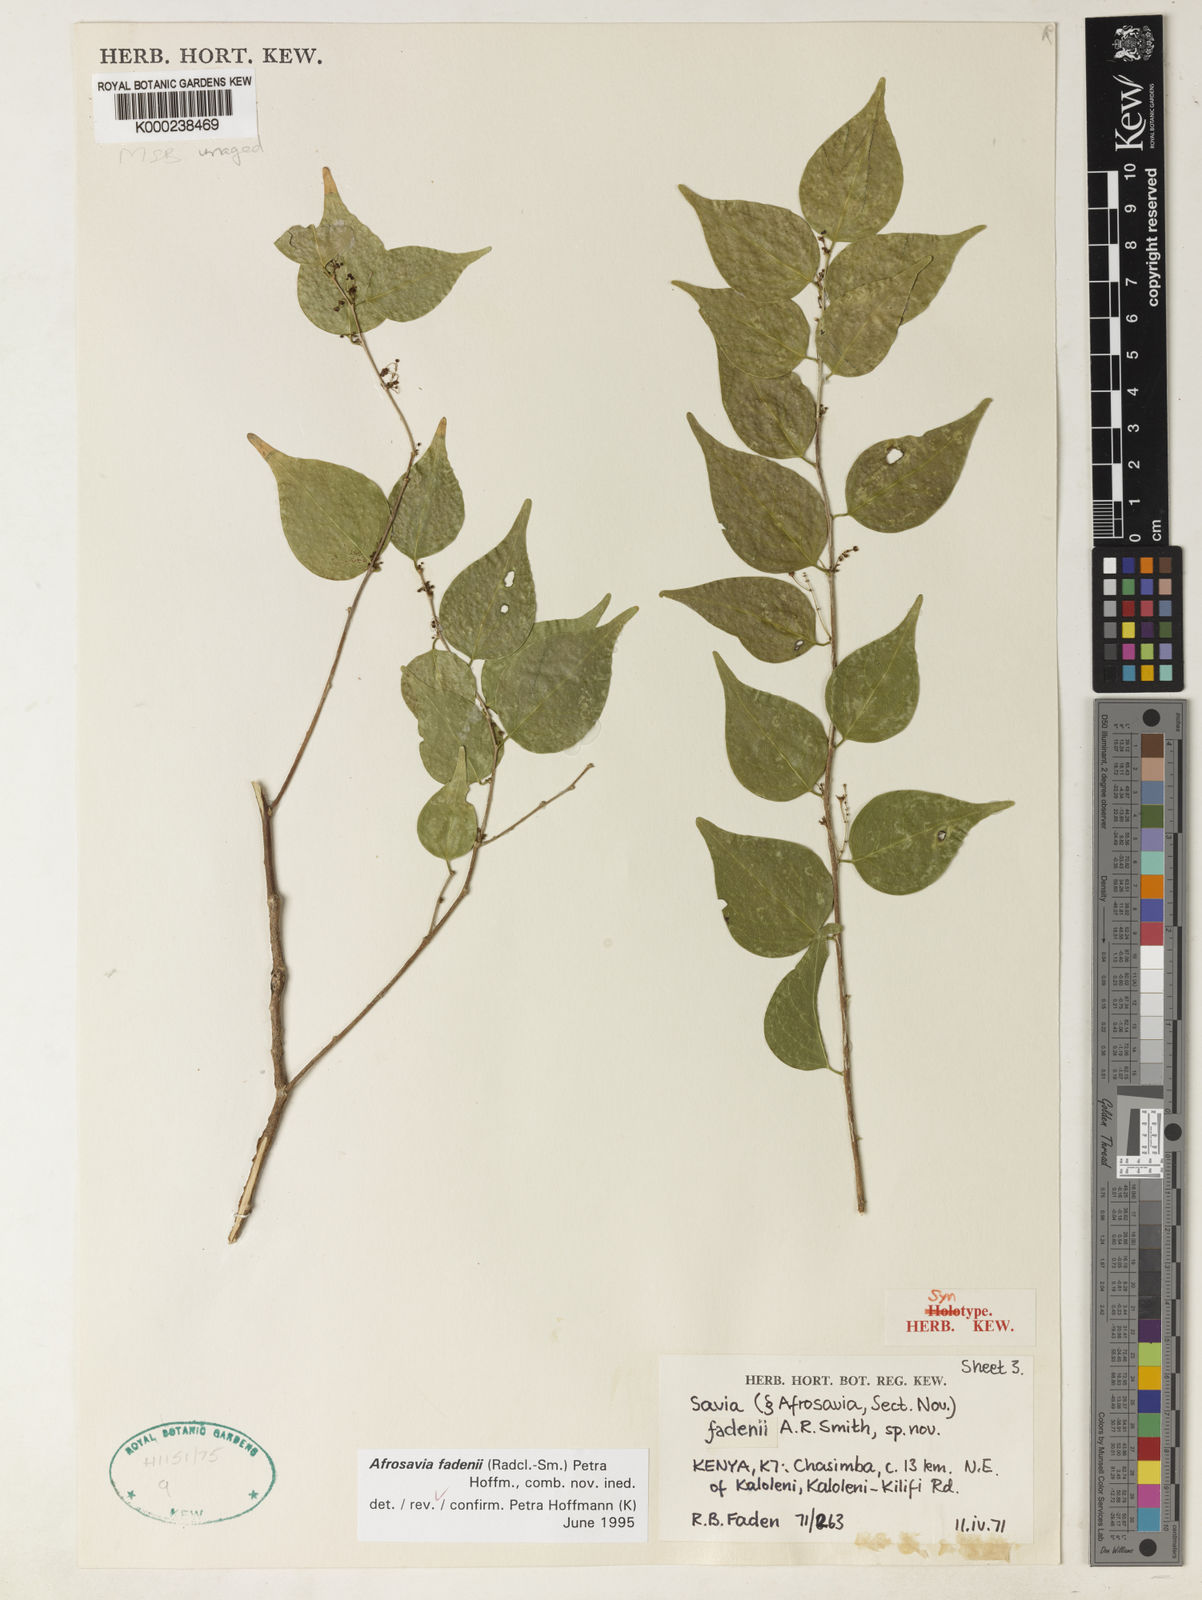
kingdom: Plantae
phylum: Tracheophyta
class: Magnoliopsida
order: Malpighiales
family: Phyllanthaceae
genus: Wielandia
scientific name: Wielandia fadenii
